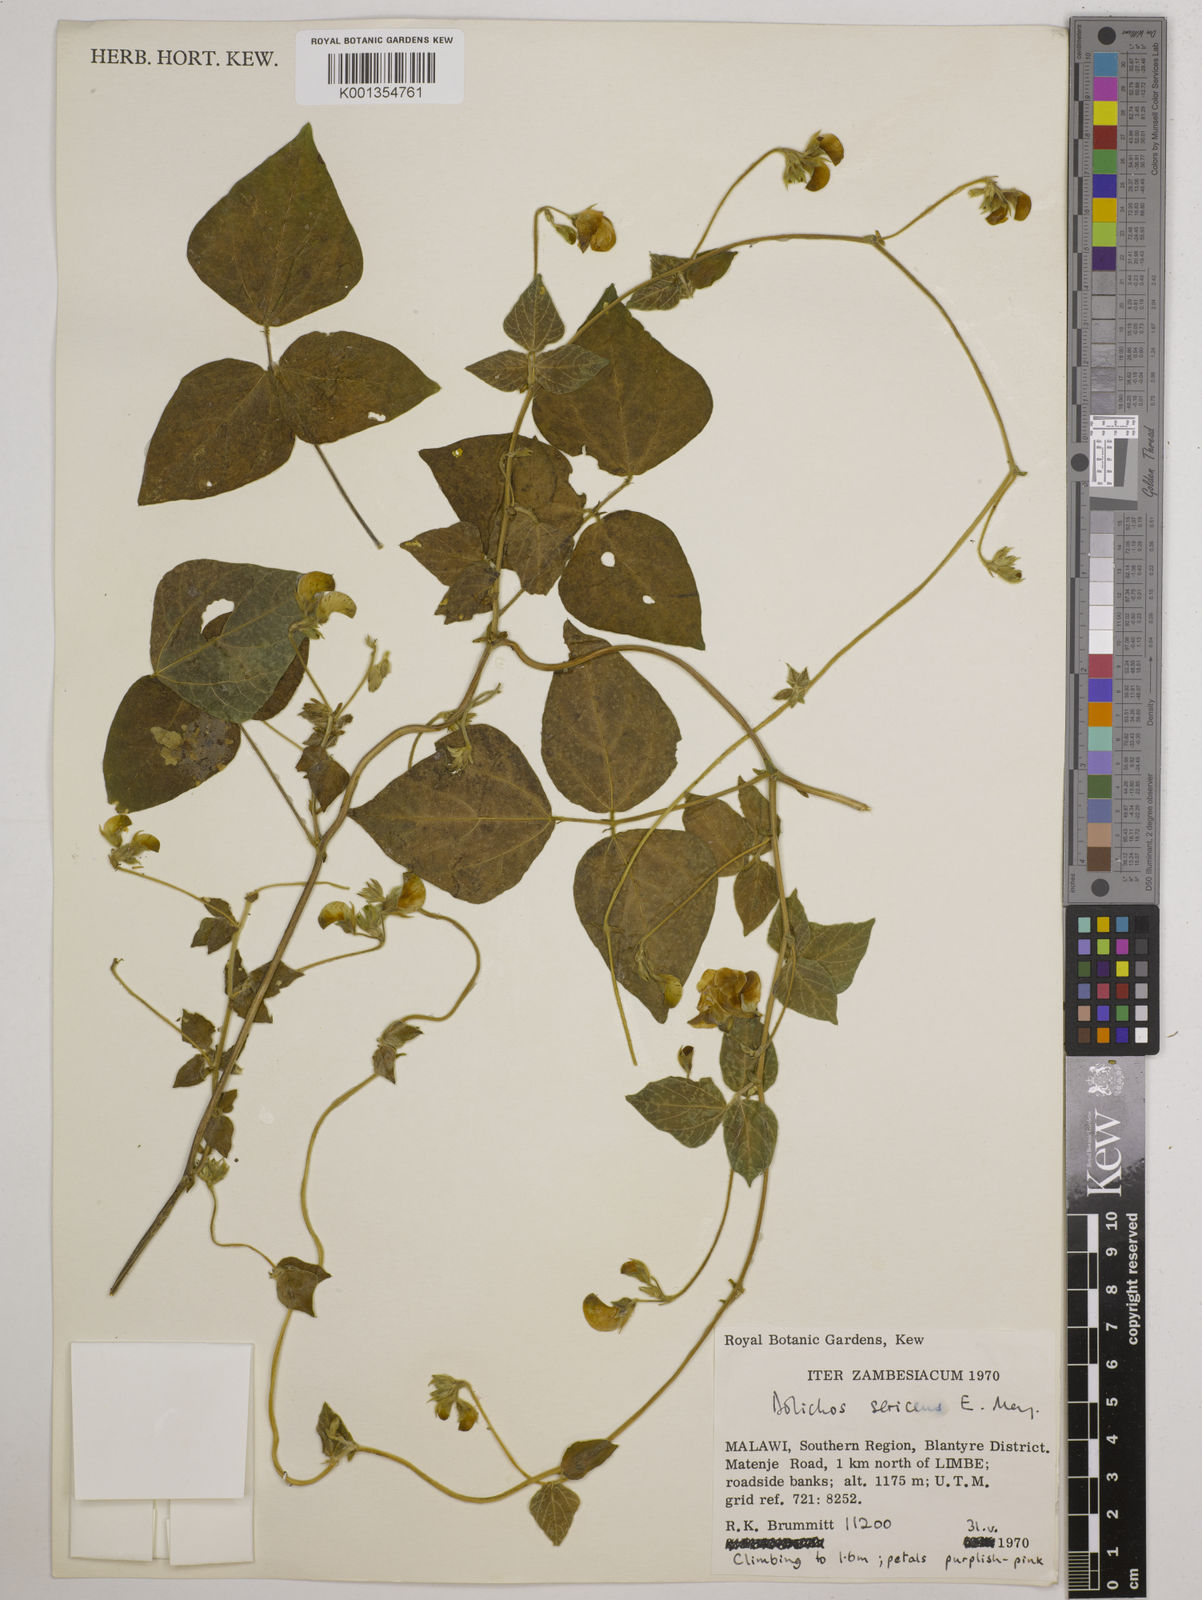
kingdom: Plantae
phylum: Tracheophyta
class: Magnoliopsida
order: Fabales
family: Fabaceae
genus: Dolichos
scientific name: Dolichos
